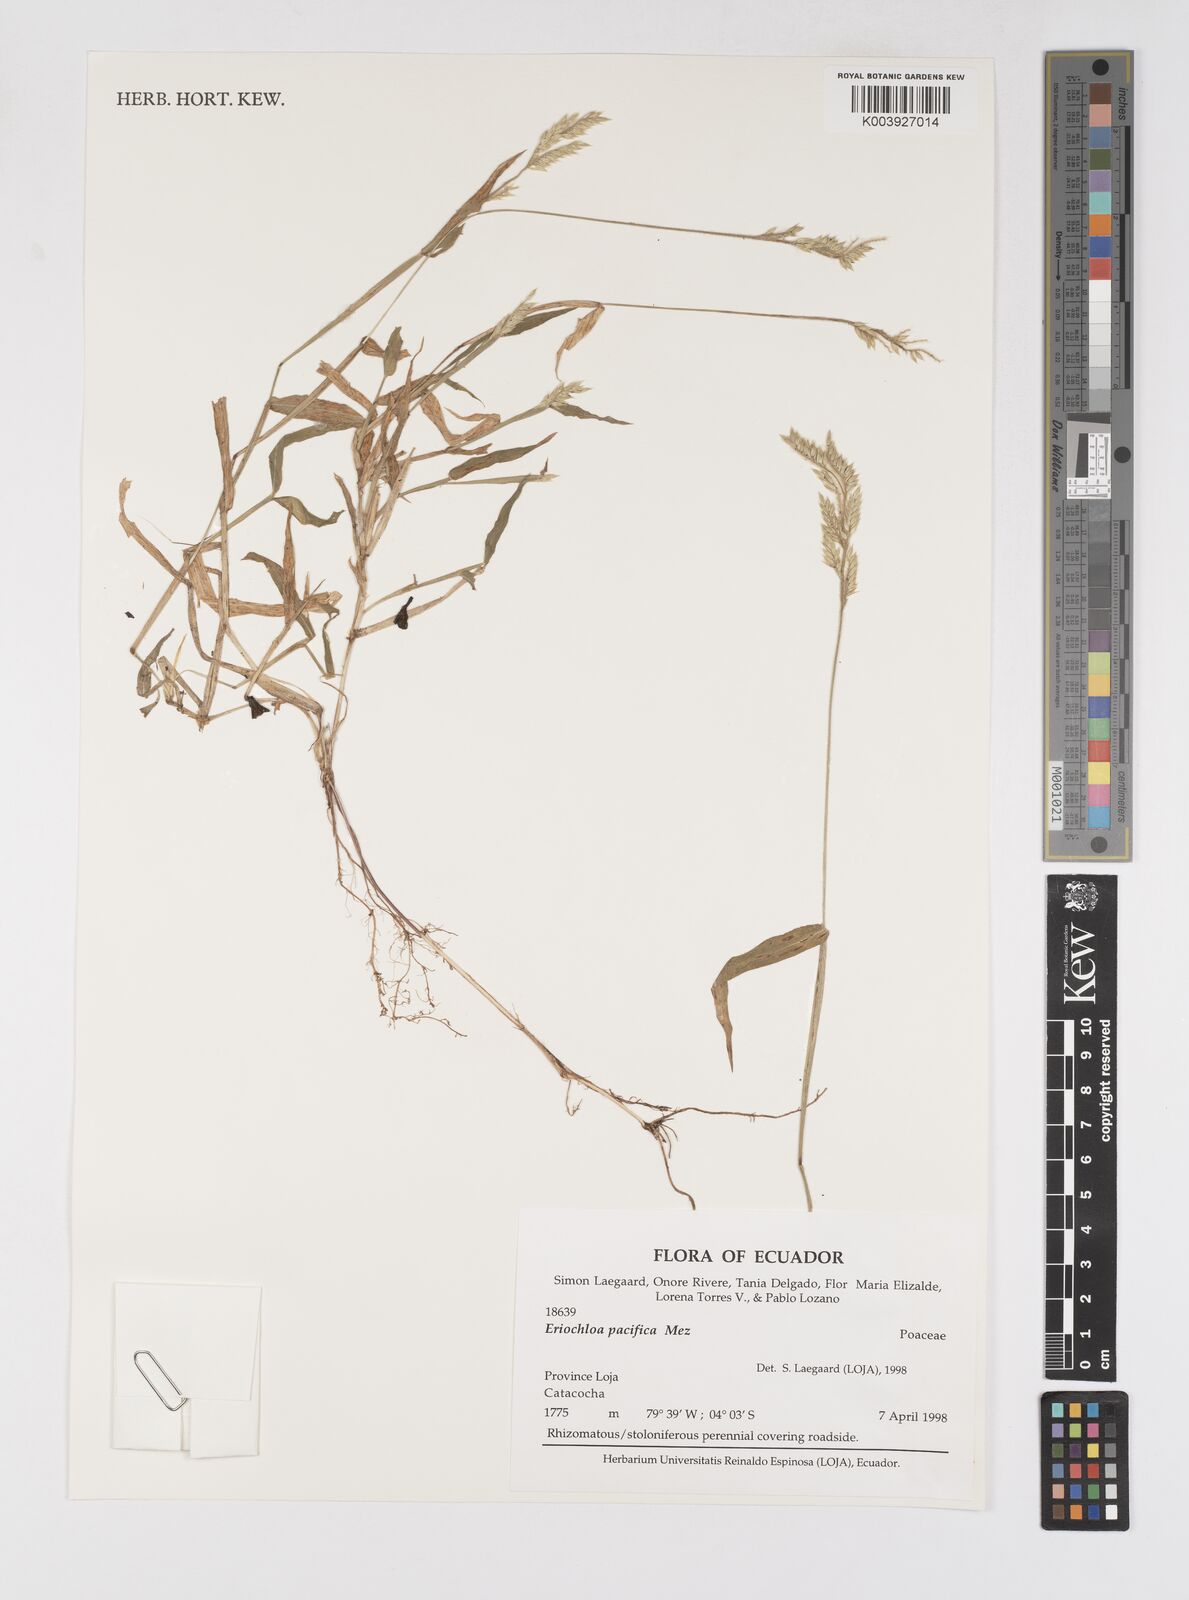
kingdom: Plantae
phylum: Tracheophyta
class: Liliopsida
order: Poales
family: Poaceae
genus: Eriochloa
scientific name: Eriochloa pacifica
